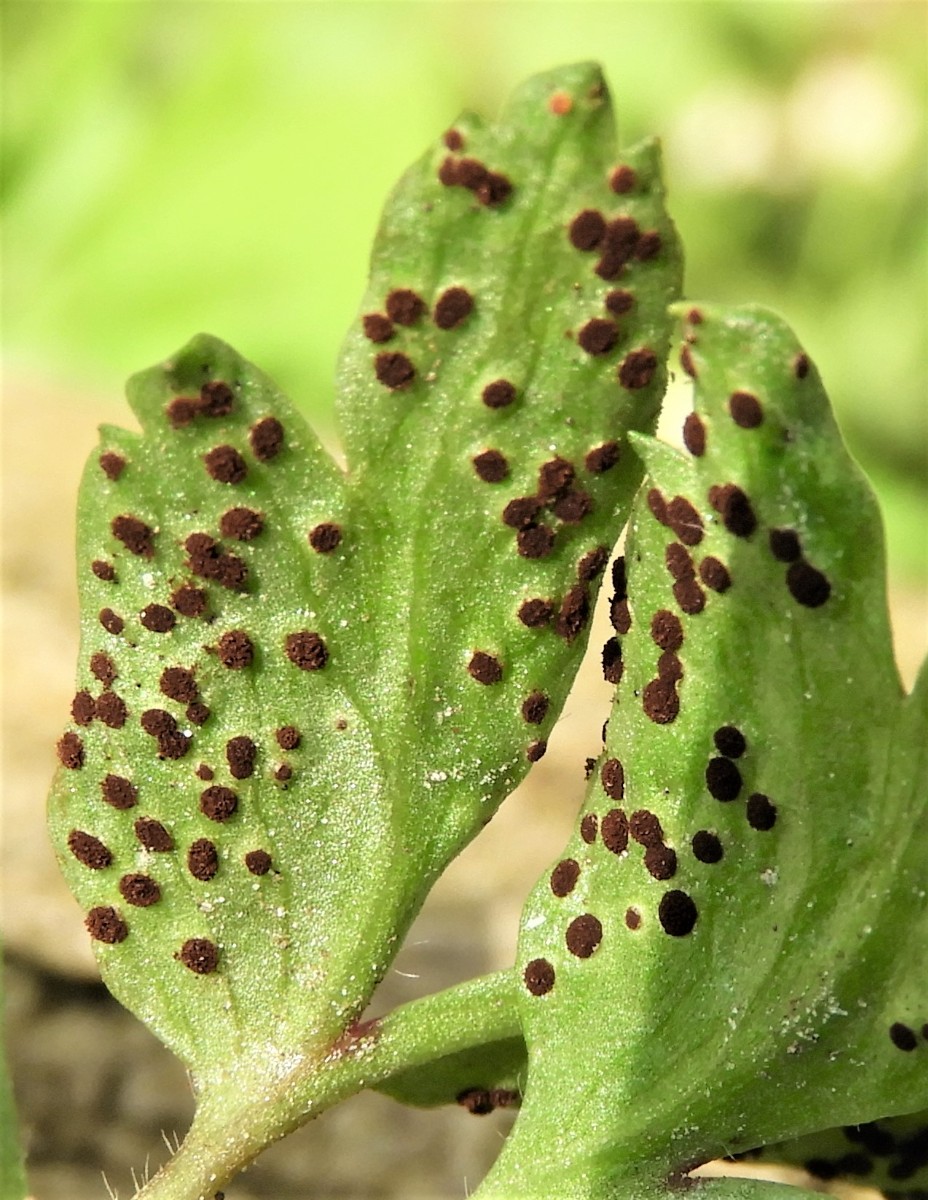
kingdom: Fungi
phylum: Basidiomycota
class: Pucciniomycetes
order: Pucciniales
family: Tranzscheliaceae
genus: Tranzschelia
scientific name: Tranzschelia anemones
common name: anemone-knæksporerust
